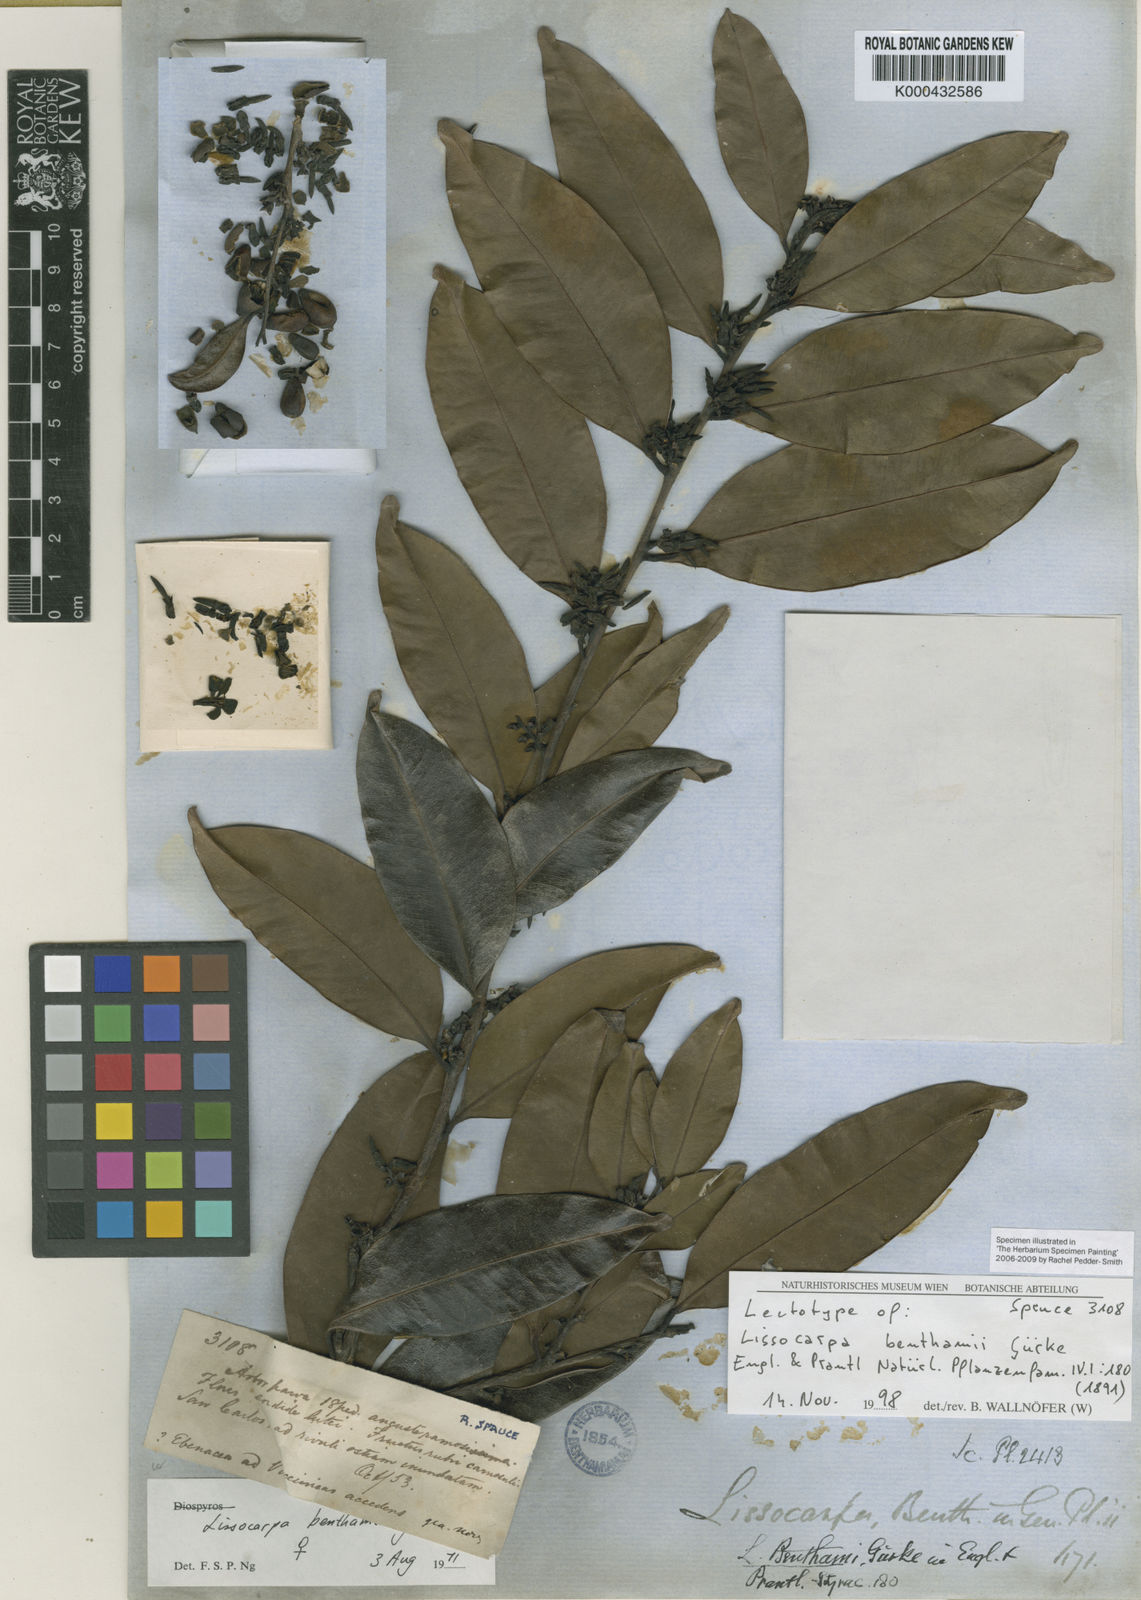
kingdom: Plantae
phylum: Tracheophyta
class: Magnoliopsida
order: Ericales
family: Ebenaceae
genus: Lissocarpa
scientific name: Lissocarpa
